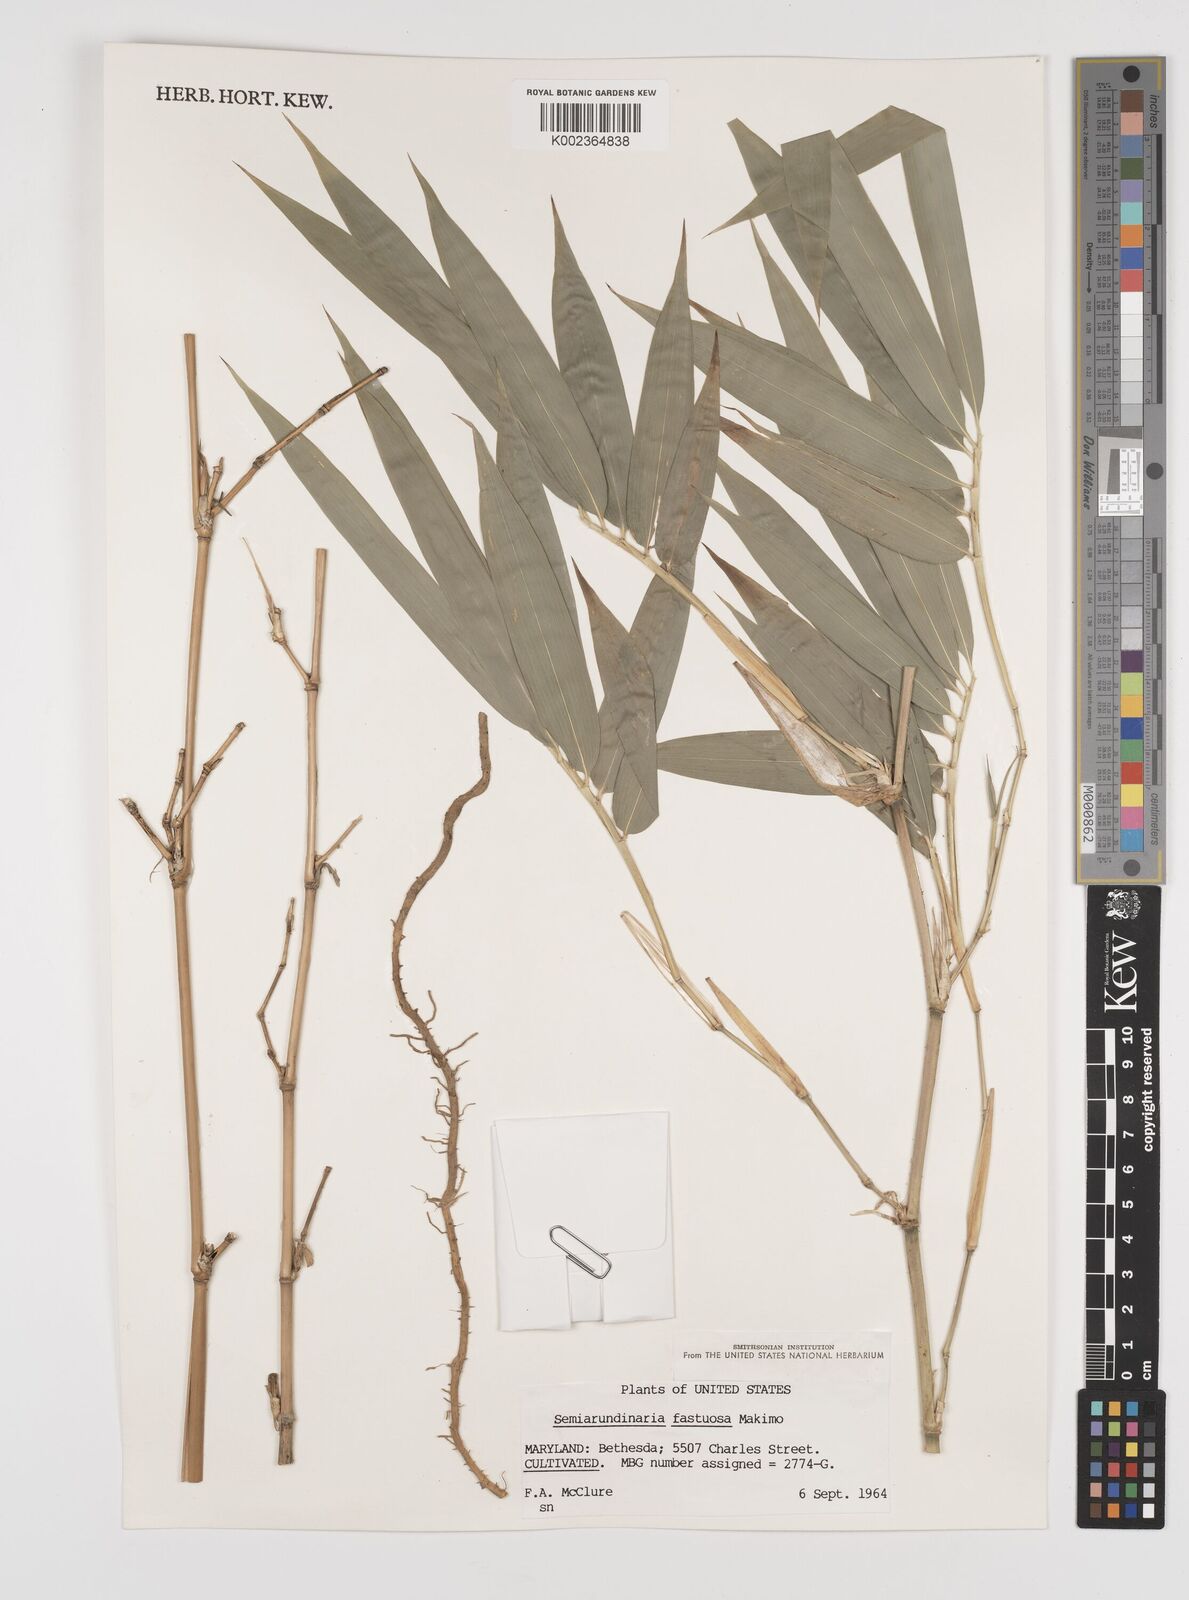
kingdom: Plantae
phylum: Tracheophyta
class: Liliopsida
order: Poales
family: Poaceae
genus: Semiarundinaria
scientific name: Semiarundinaria fastuosa
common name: Narihira bamboo
